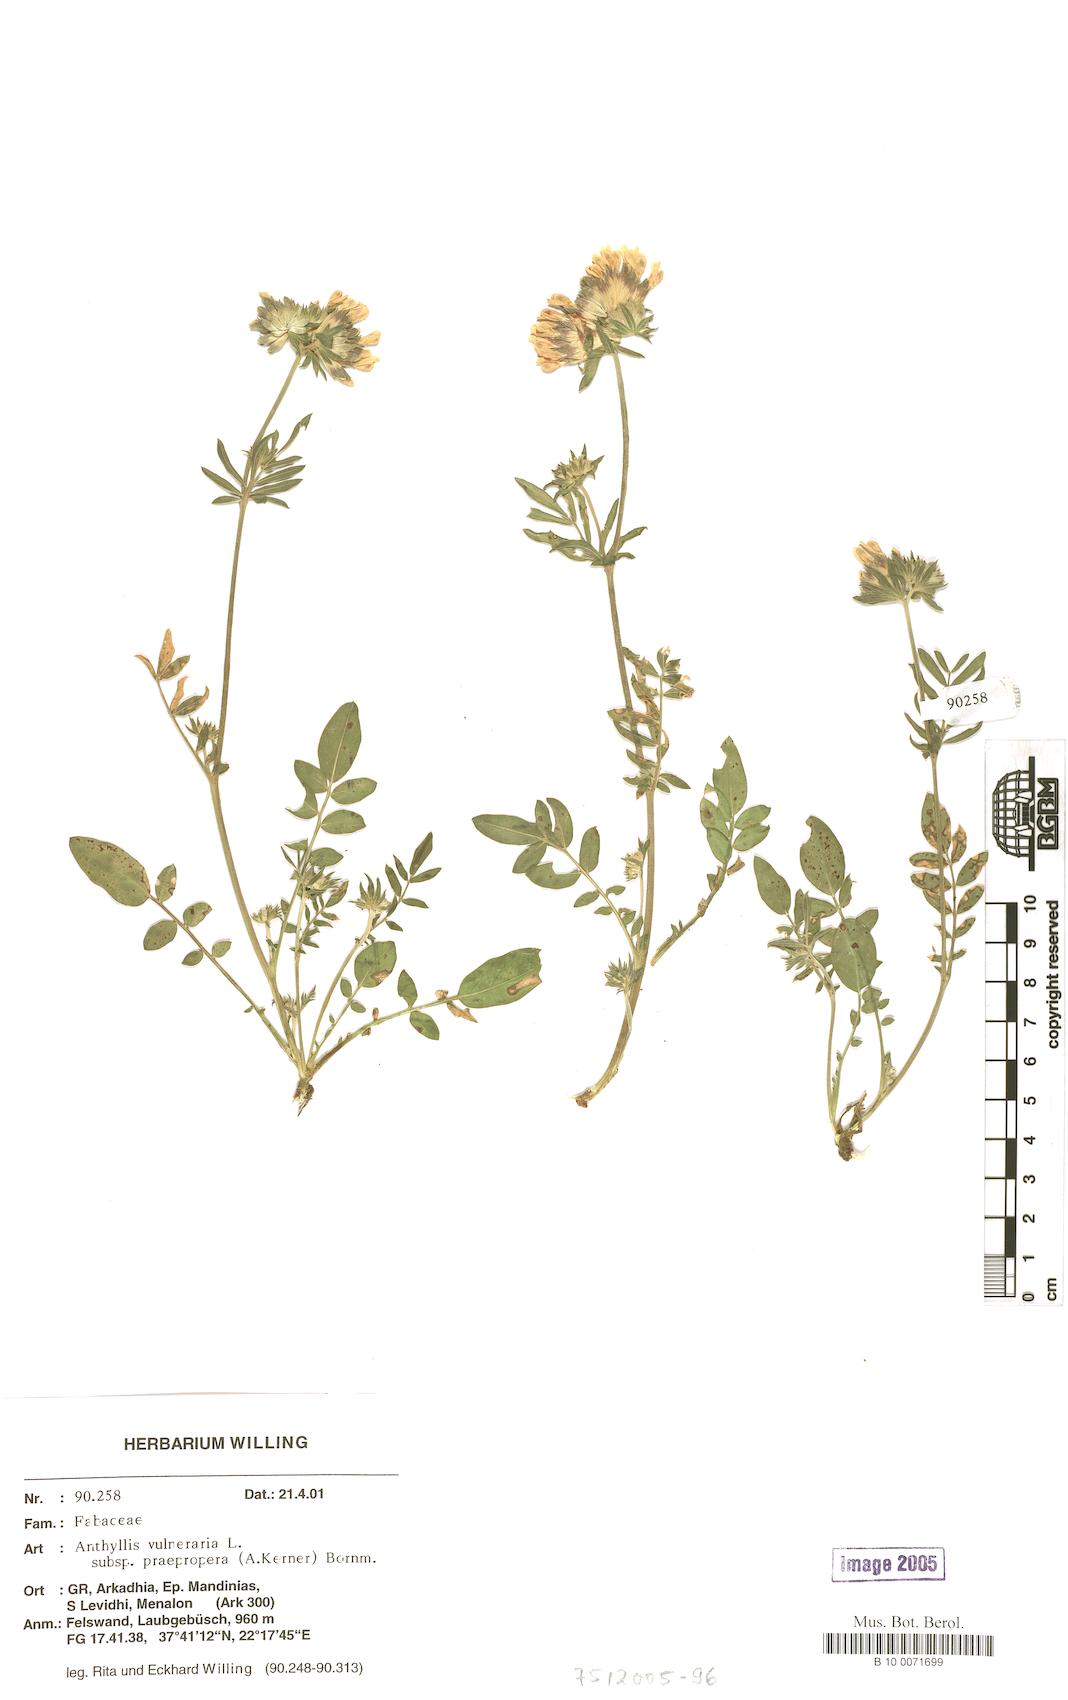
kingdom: Plantae
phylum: Tracheophyta
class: Magnoliopsida
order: Fabales
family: Fabaceae
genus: Anthyllis
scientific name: Anthyllis vulneraria
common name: Kidney vetch
